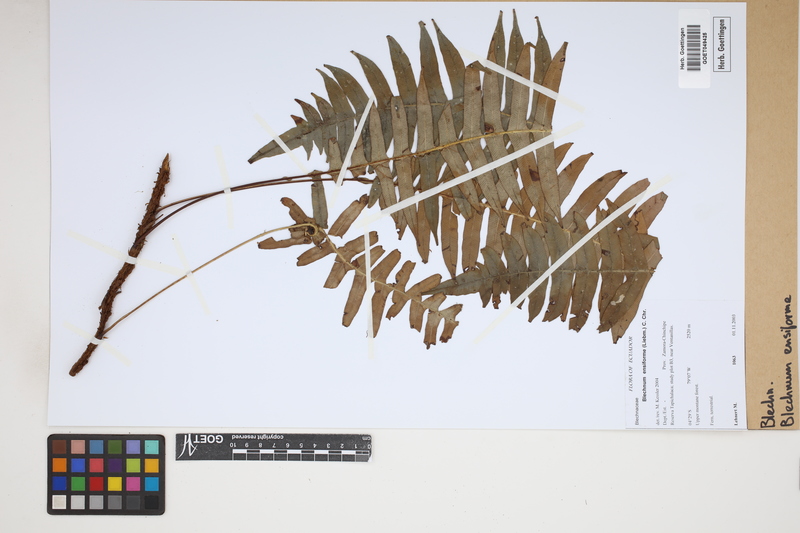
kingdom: Plantae
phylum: Tracheophyta
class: Polypodiopsida
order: Polypodiales
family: Blechnaceae
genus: Lomaridium
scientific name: Lomaridium ensiforme
